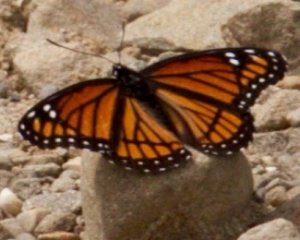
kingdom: Animalia
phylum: Arthropoda
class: Insecta
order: Lepidoptera
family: Nymphalidae
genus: Limenitis
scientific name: Limenitis archippus
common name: Viceroy
